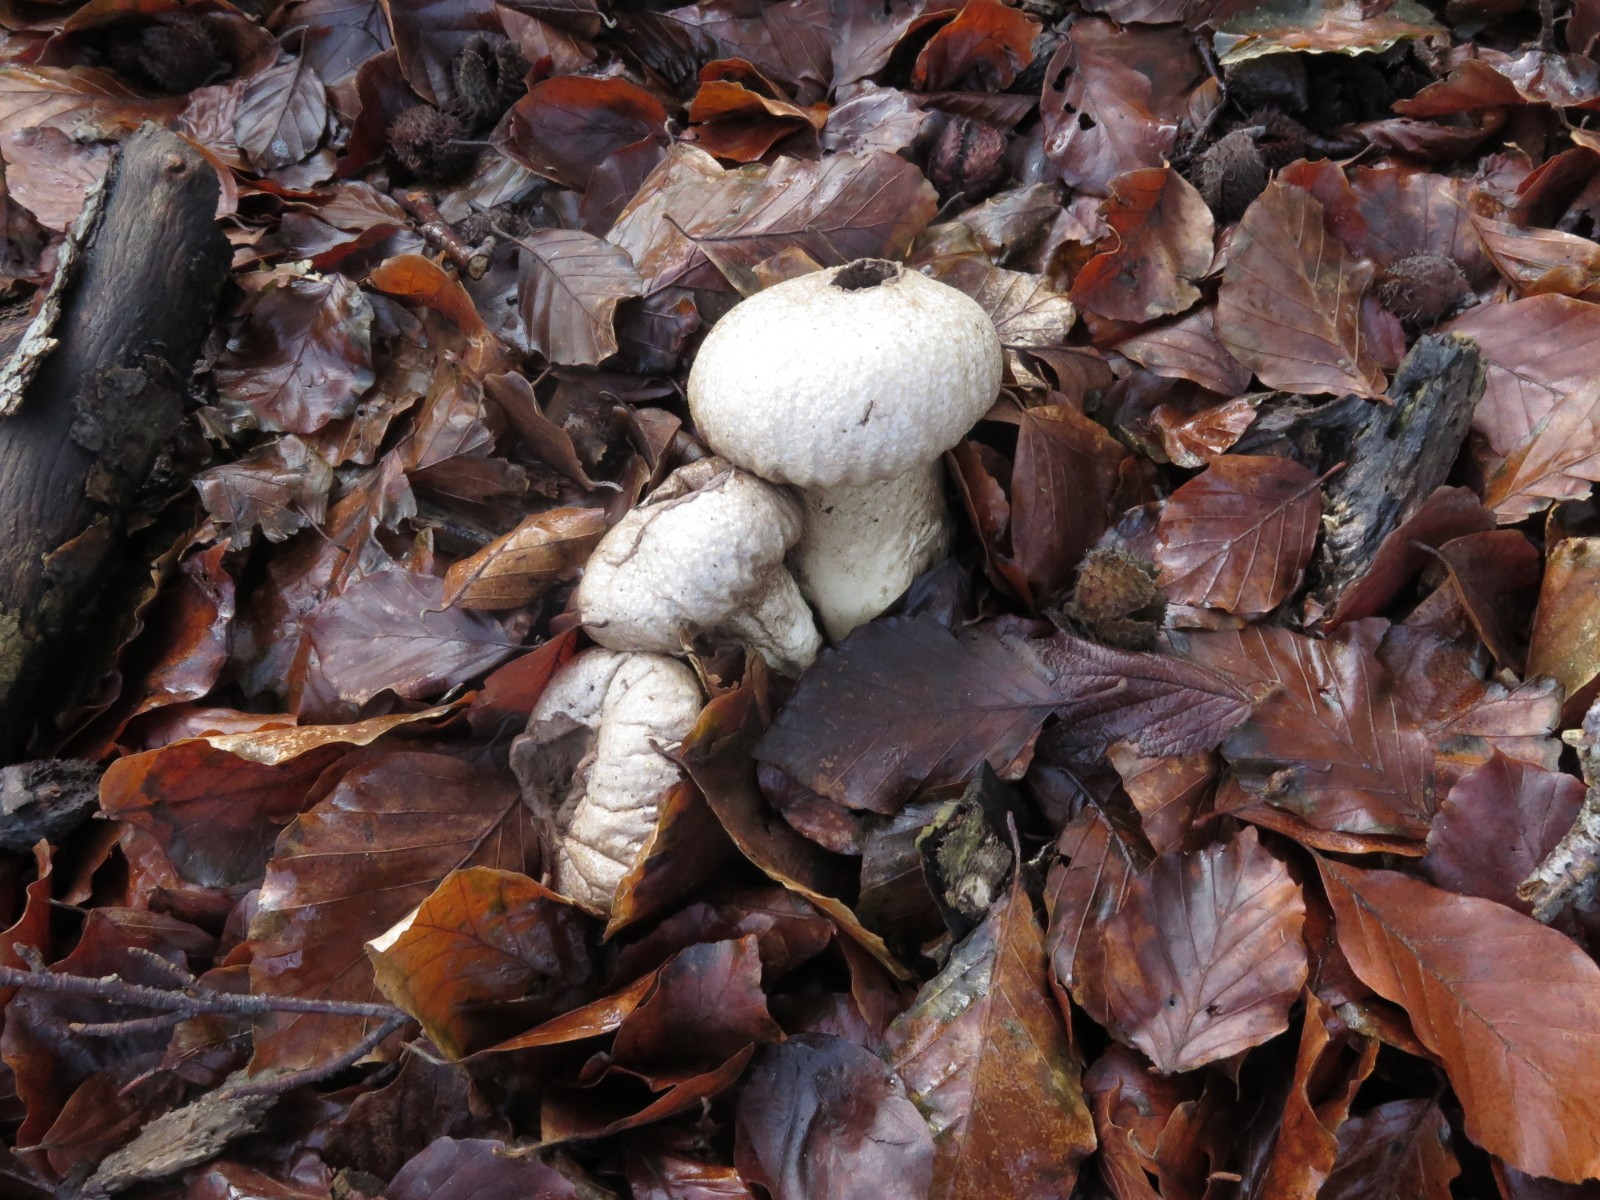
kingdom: Fungi
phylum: Basidiomycota
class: Agaricomycetes
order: Agaricales
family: Lycoperdaceae
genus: Lycoperdon
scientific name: Lycoperdon perlatum
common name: krystal-støvbold
